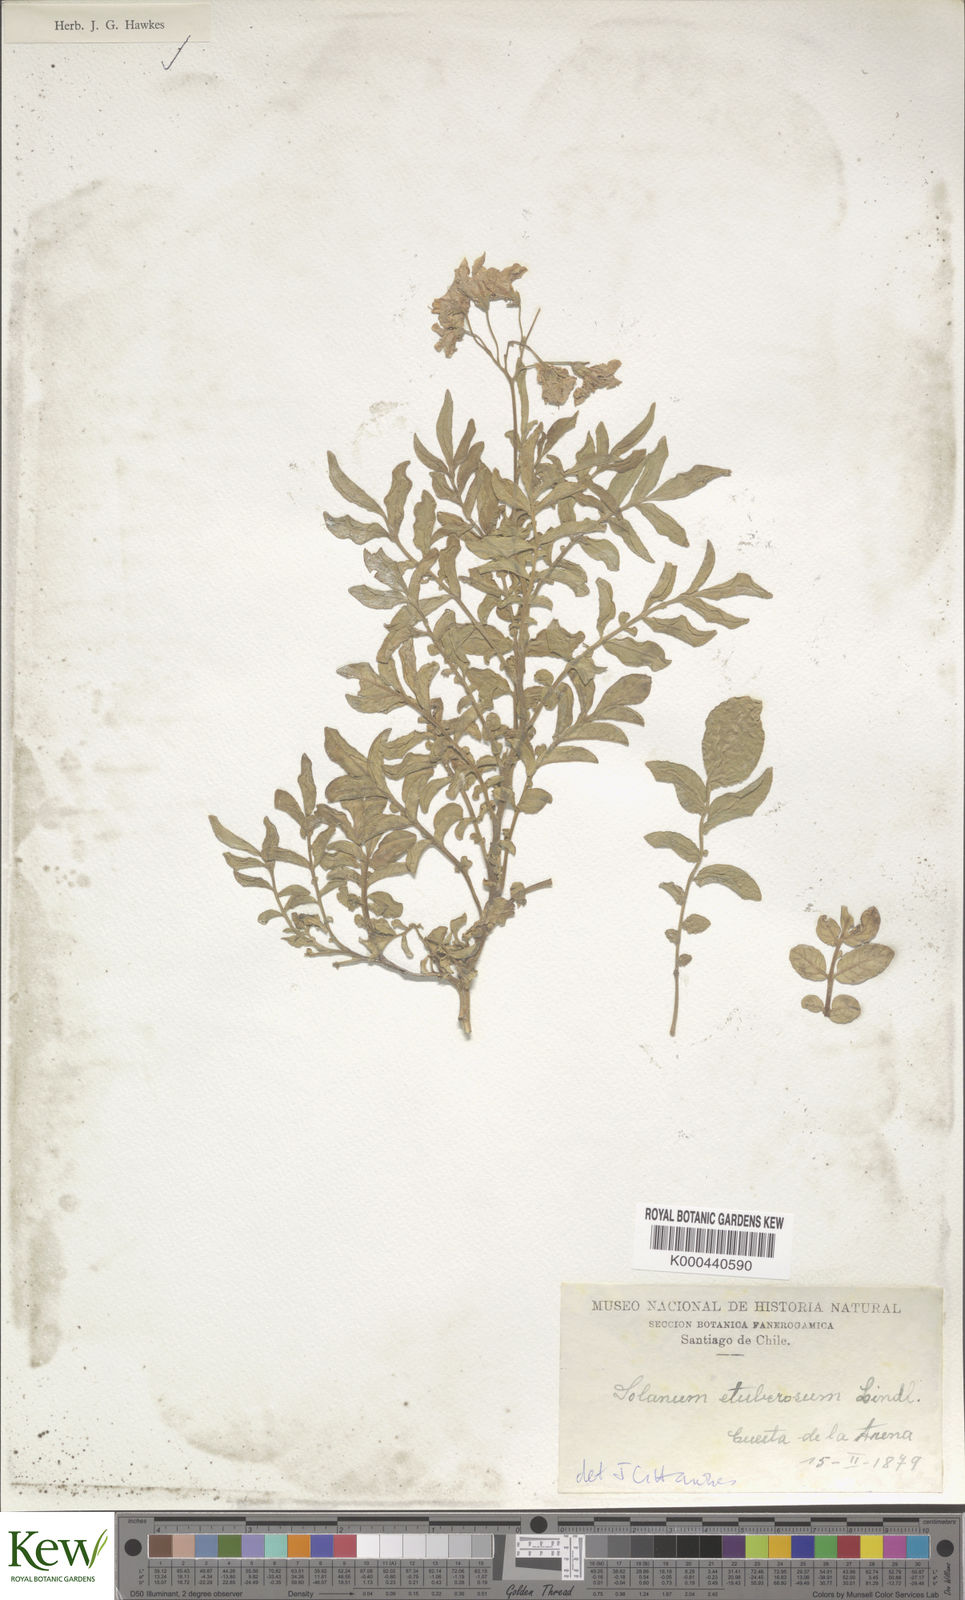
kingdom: Plantae
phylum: Tracheophyta
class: Magnoliopsida
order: Solanales
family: Solanaceae
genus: Solanum
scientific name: Solanum etuberosum
